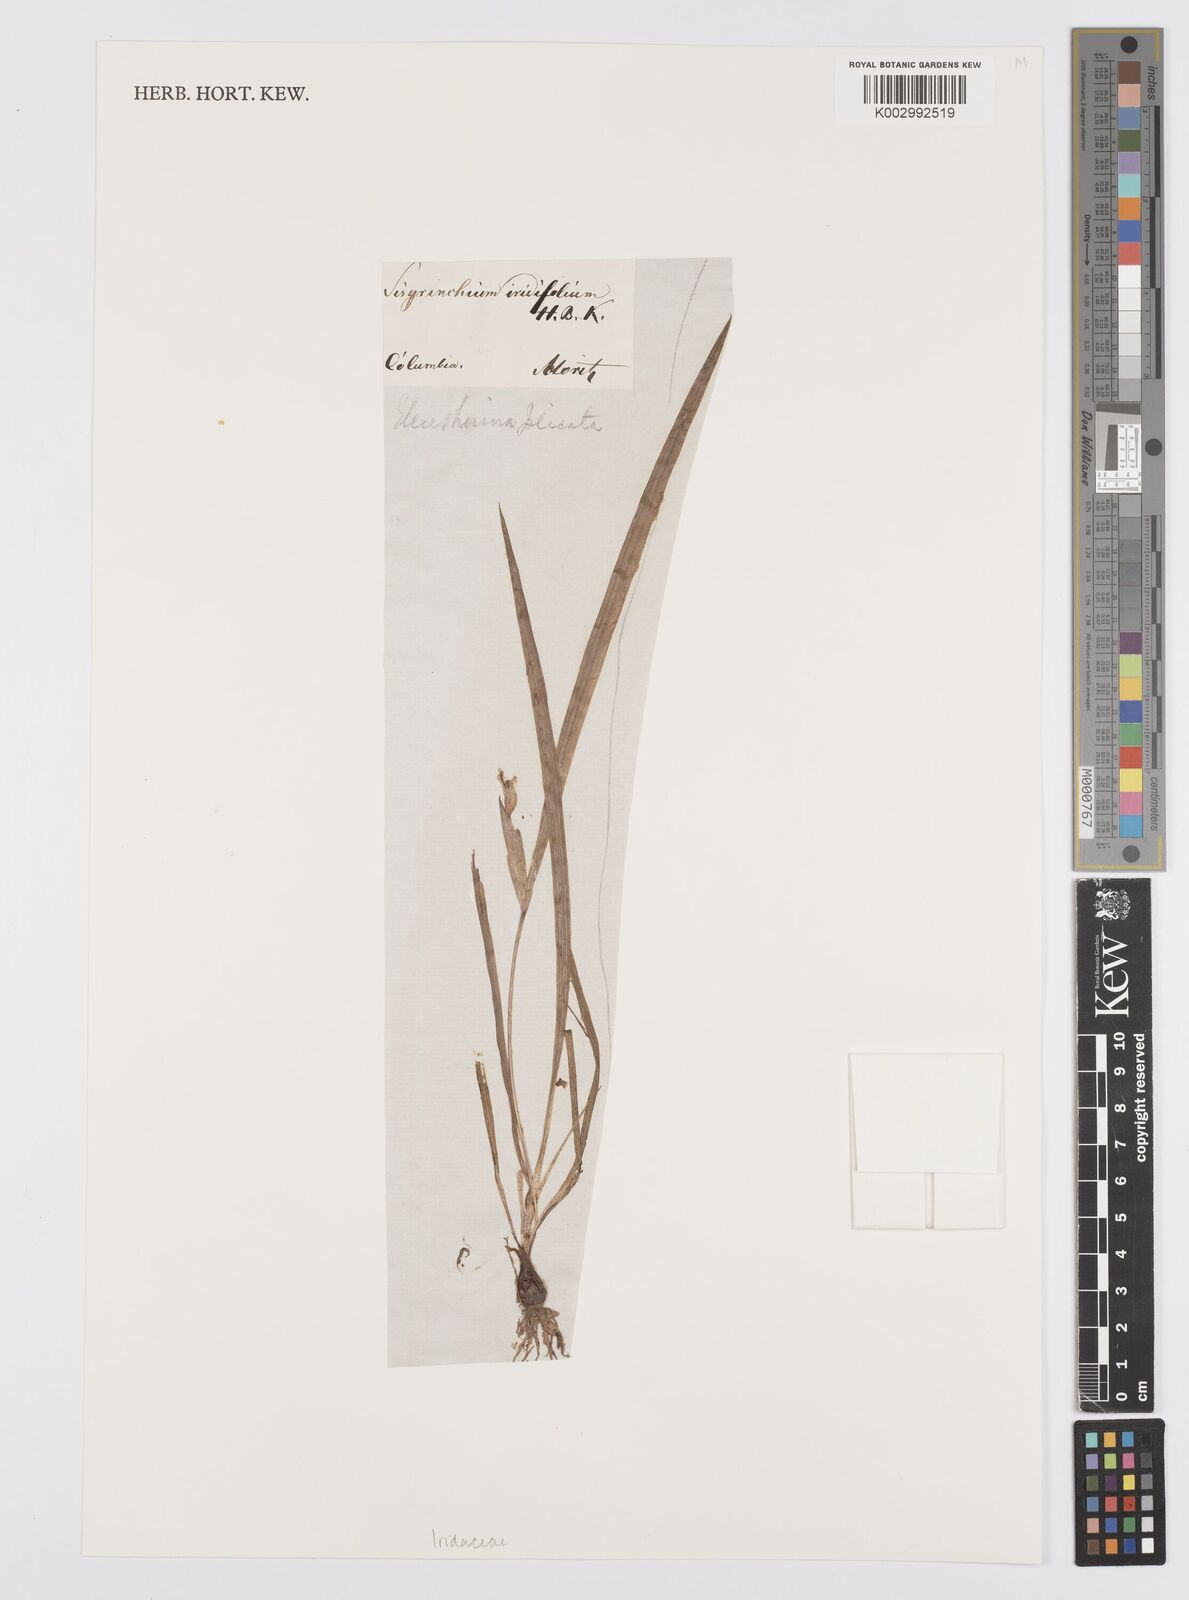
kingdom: Plantae
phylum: Tracheophyta
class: Liliopsida
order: Asparagales
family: Iridaceae
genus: Sisyrinchium
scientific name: Sisyrinchium micranthum
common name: Bermuda pigroot
